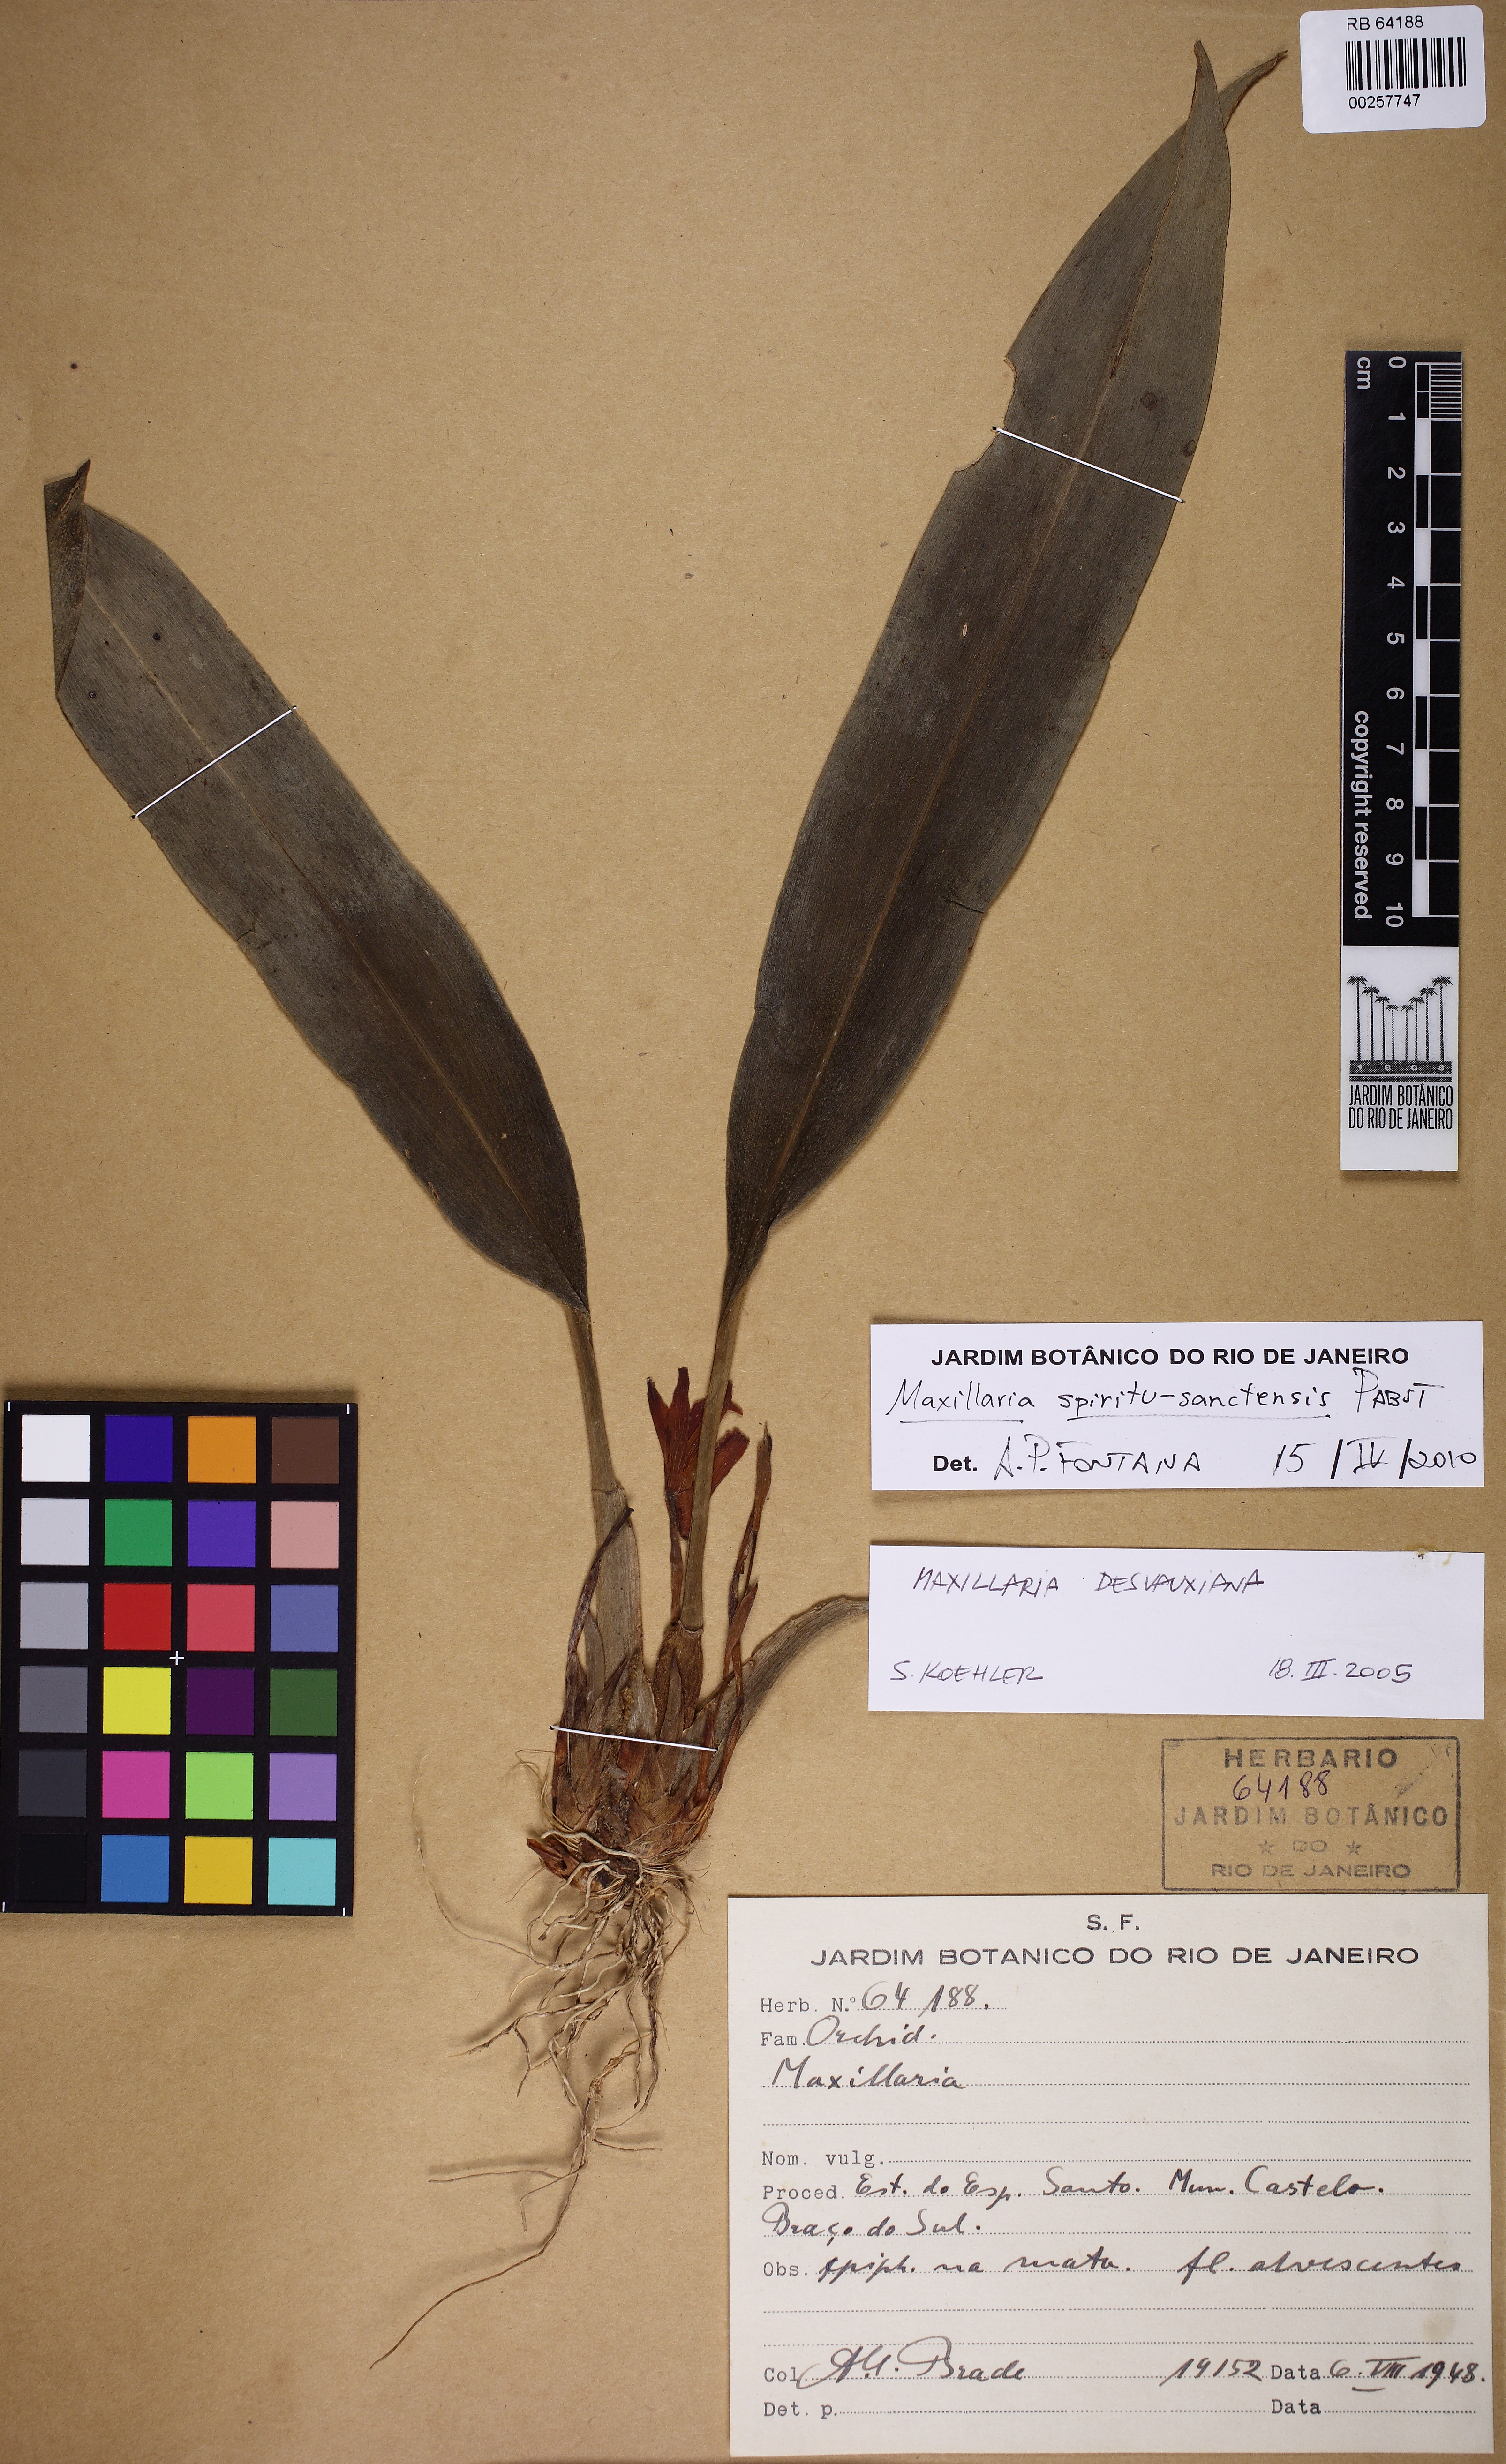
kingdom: Plantae
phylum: Tracheophyta
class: Liliopsida
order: Asparagales
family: Orchidaceae
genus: Maxillaria
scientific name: Maxillaria spiritu-sanctensis
